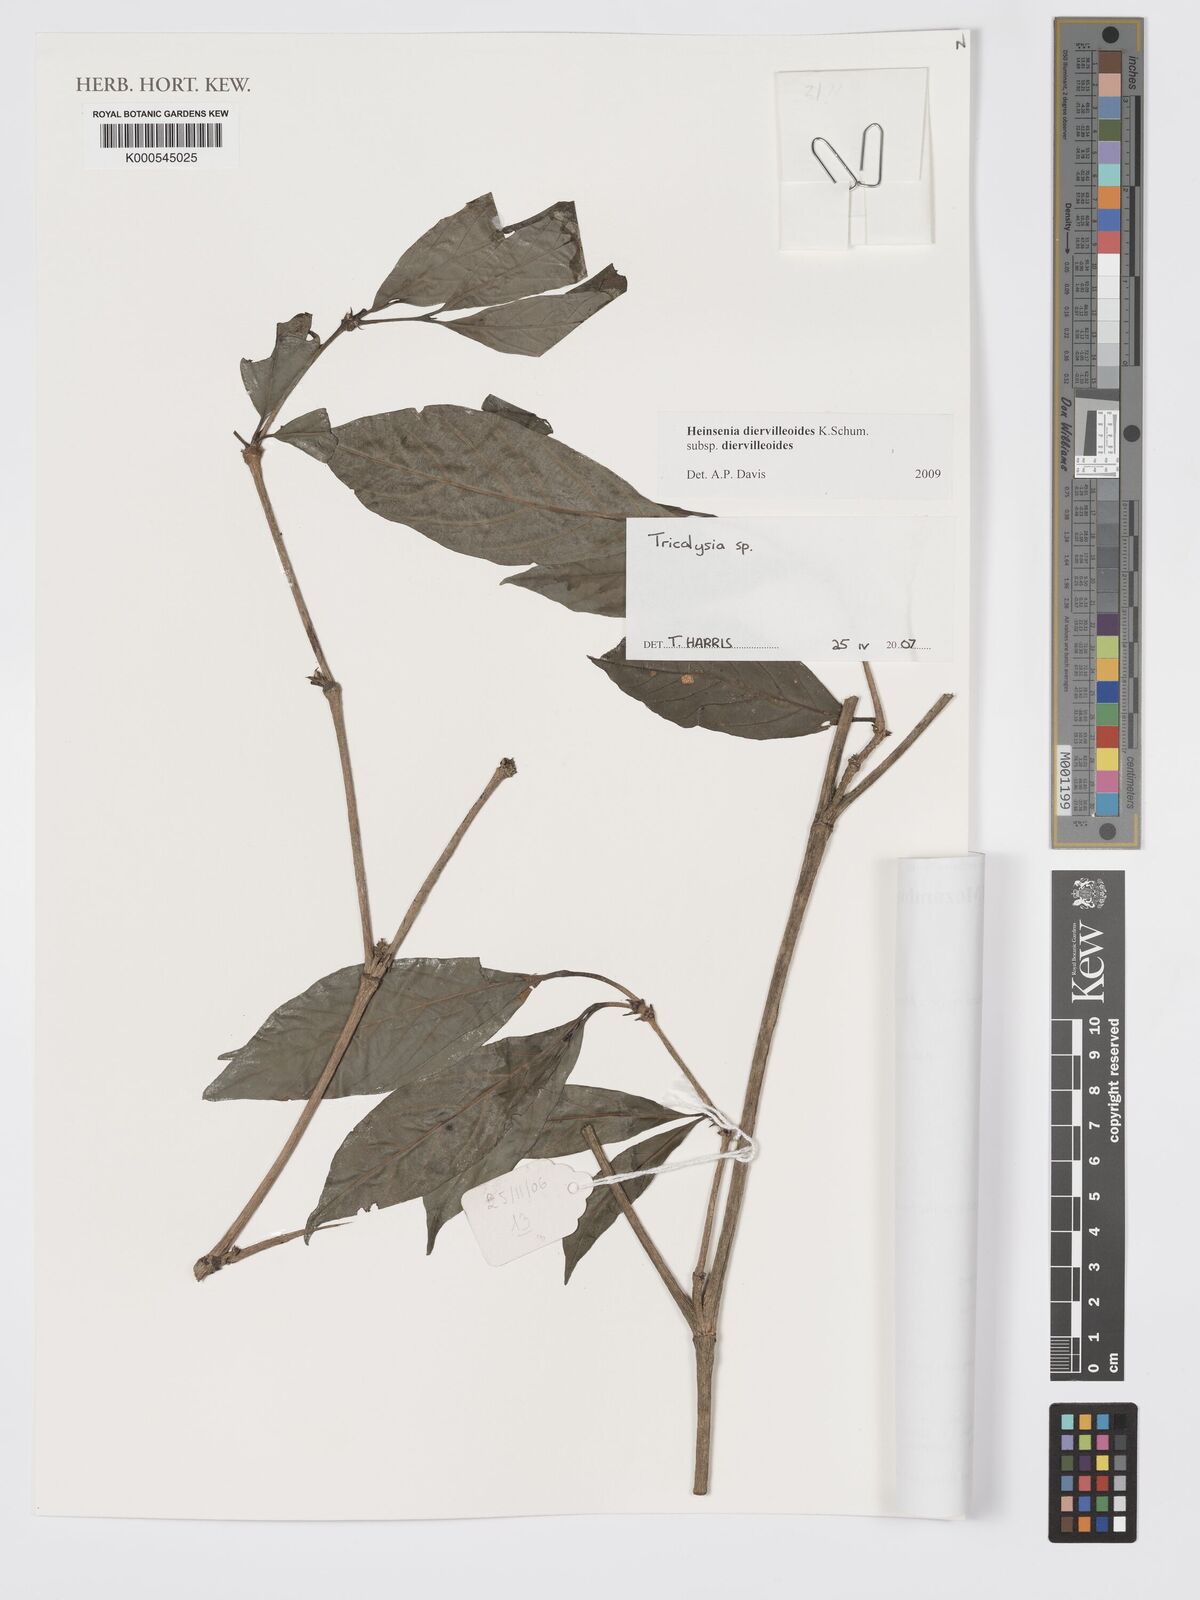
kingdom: Plantae
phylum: Tracheophyta
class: Magnoliopsida
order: Gentianales
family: Rubiaceae
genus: Tricalysia
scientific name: Tricalysia
